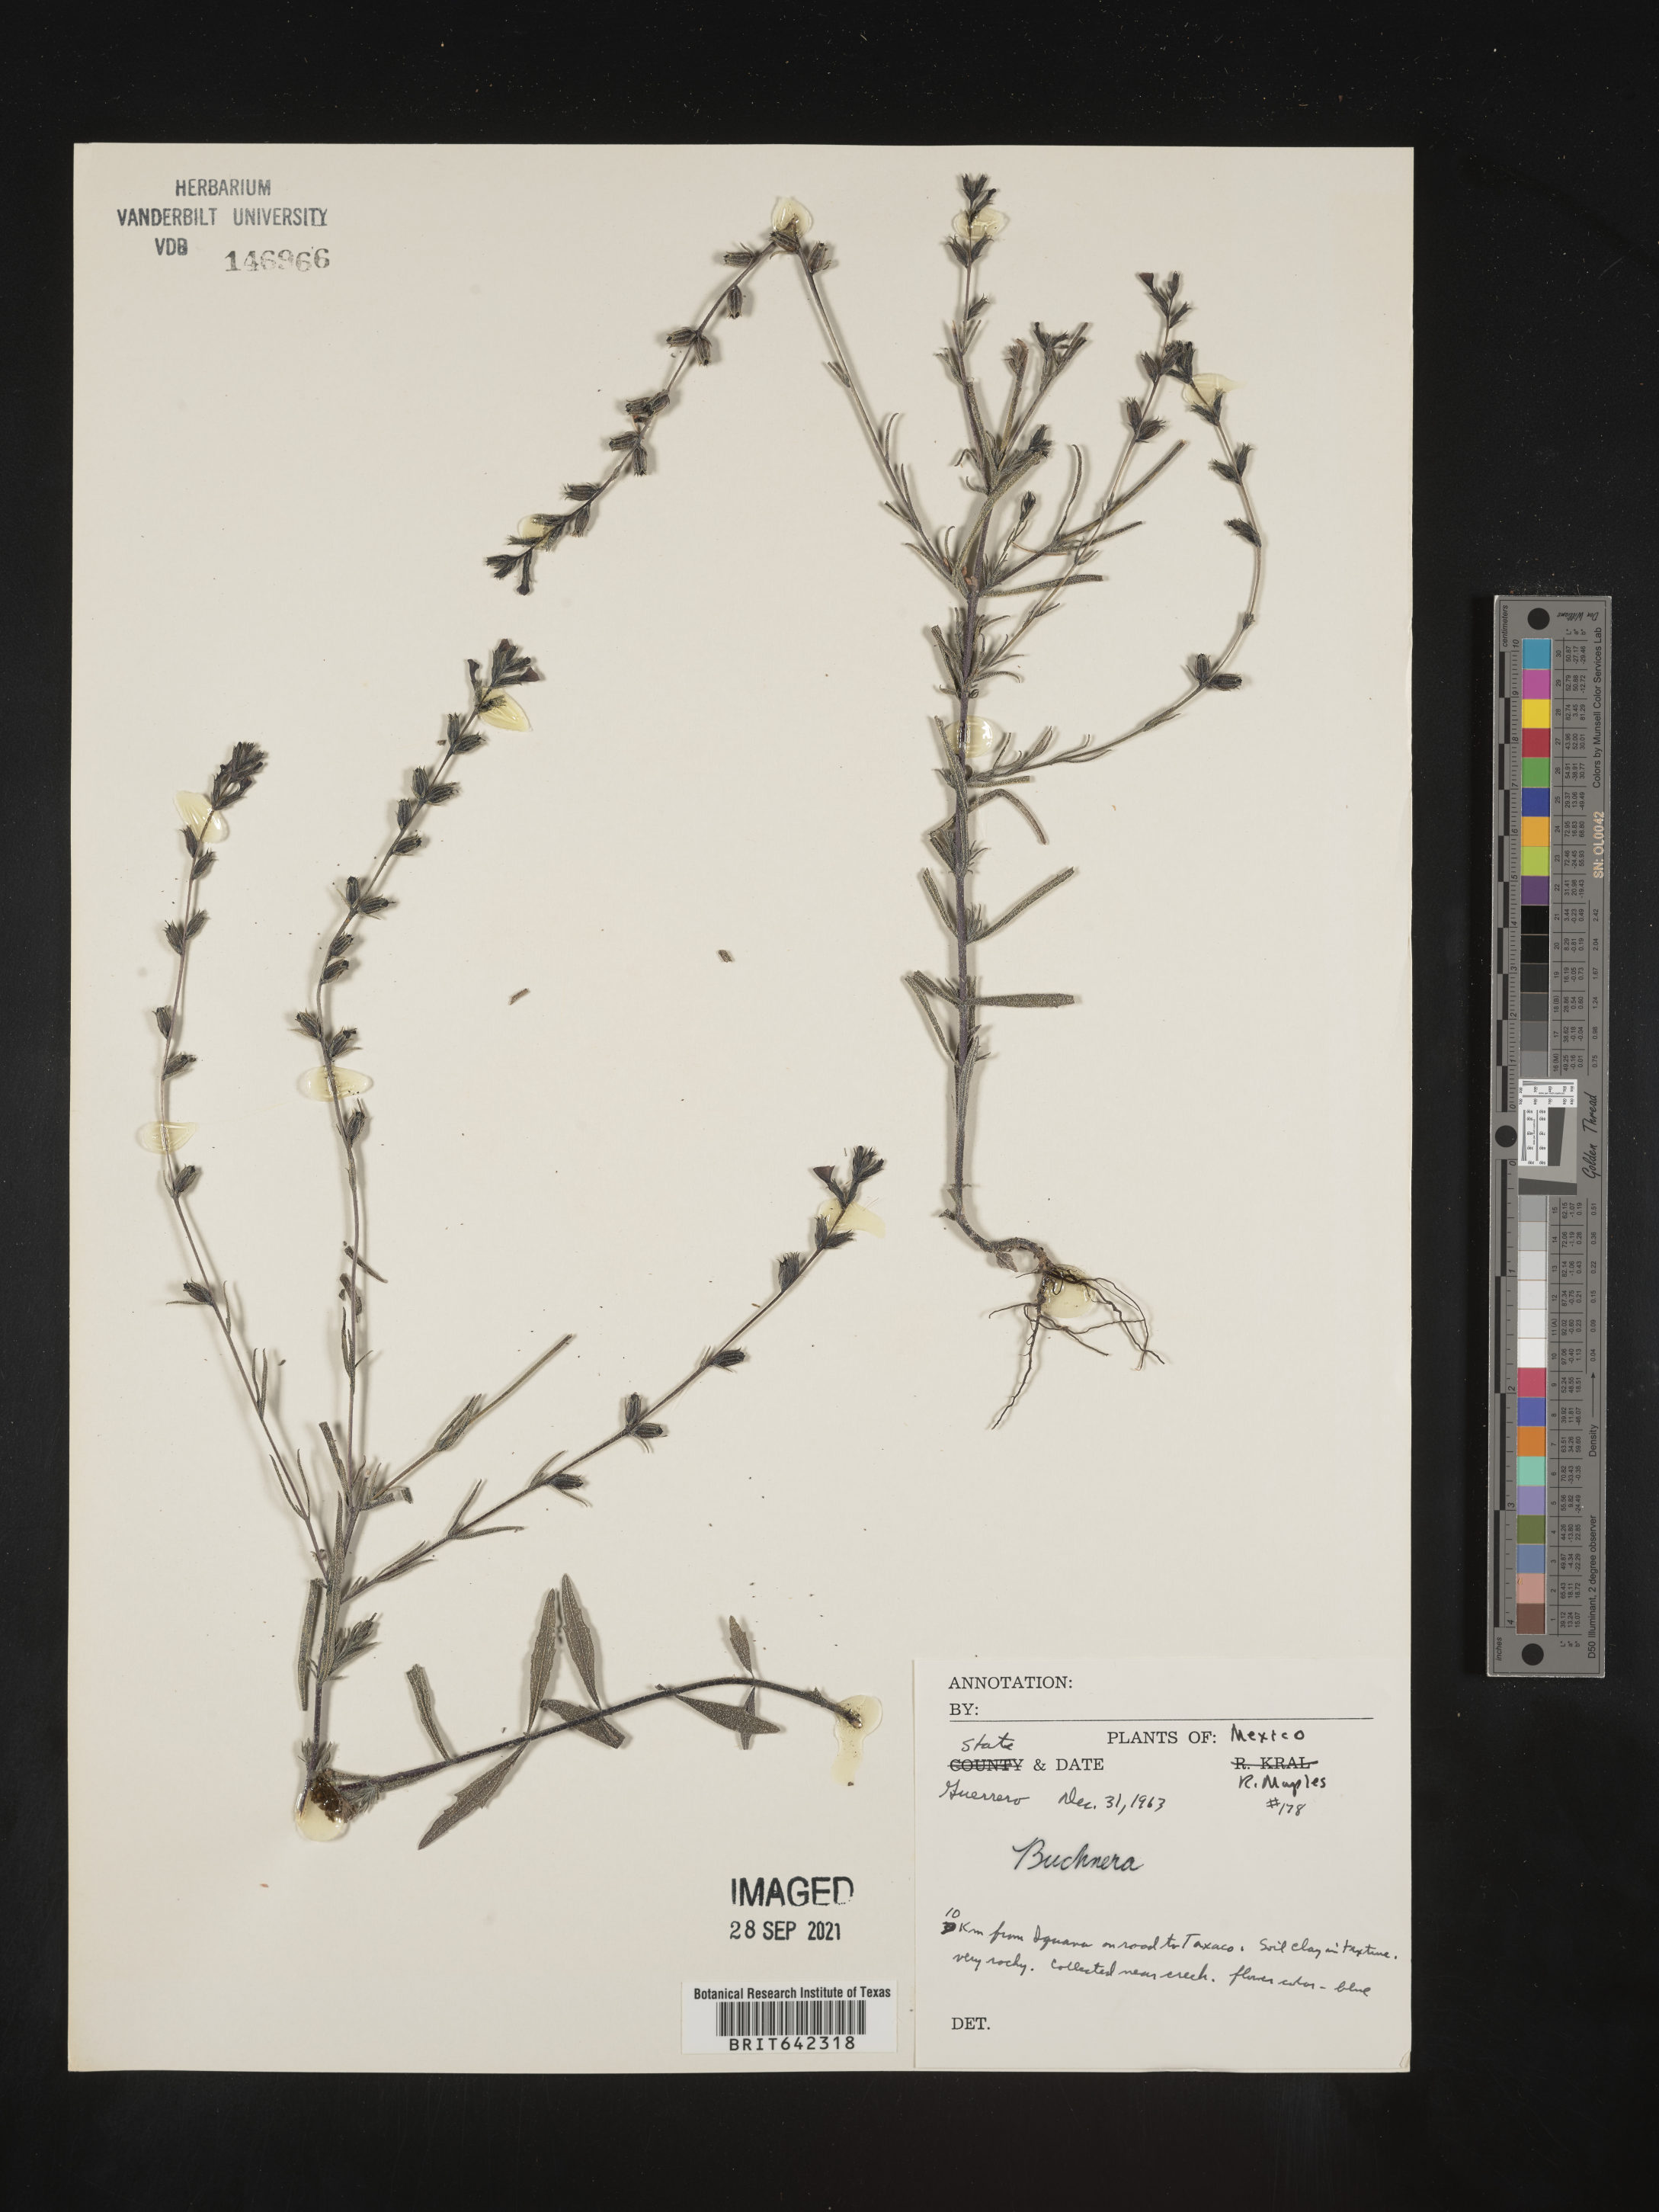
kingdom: Plantae
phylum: Tracheophyta
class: Magnoliopsida
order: Lamiales
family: Orobanchaceae
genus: Buchnera
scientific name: Buchnera
